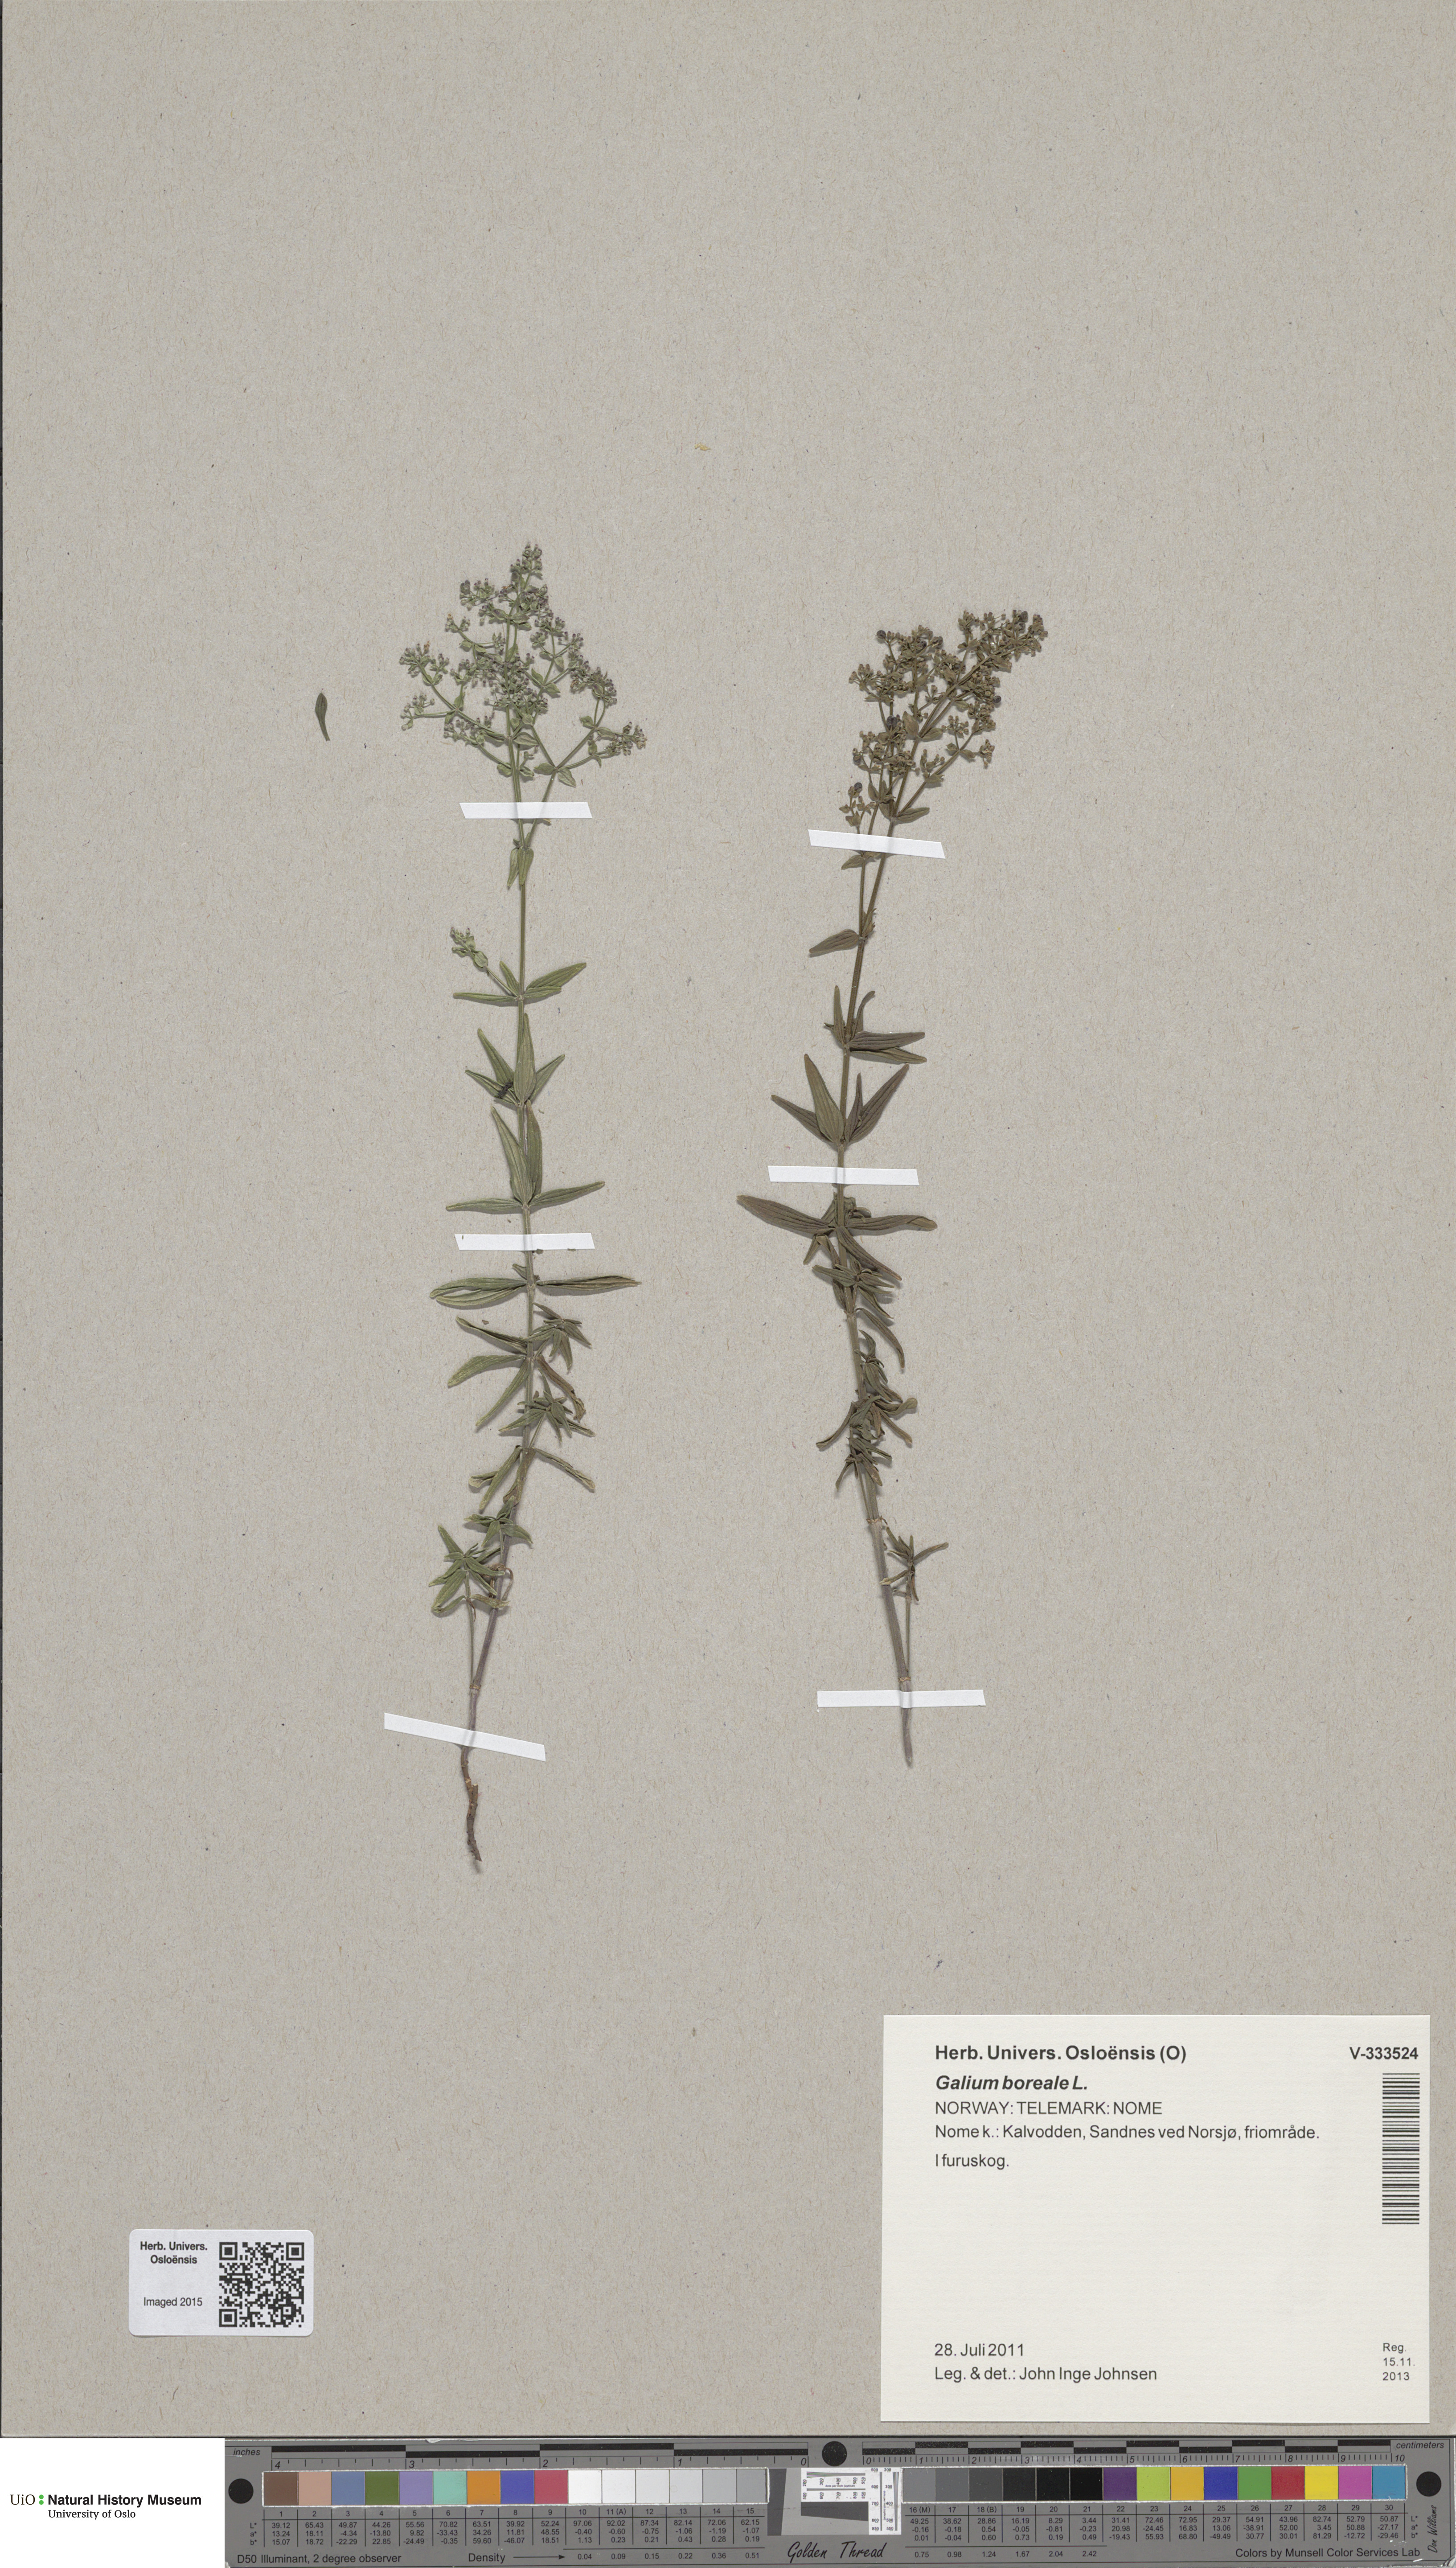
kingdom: Plantae
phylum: Tracheophyta
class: Magnoliopsida
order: Gentianales
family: Rubiaceae
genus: Galium
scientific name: Galium boreale
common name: Northern bedstraw
